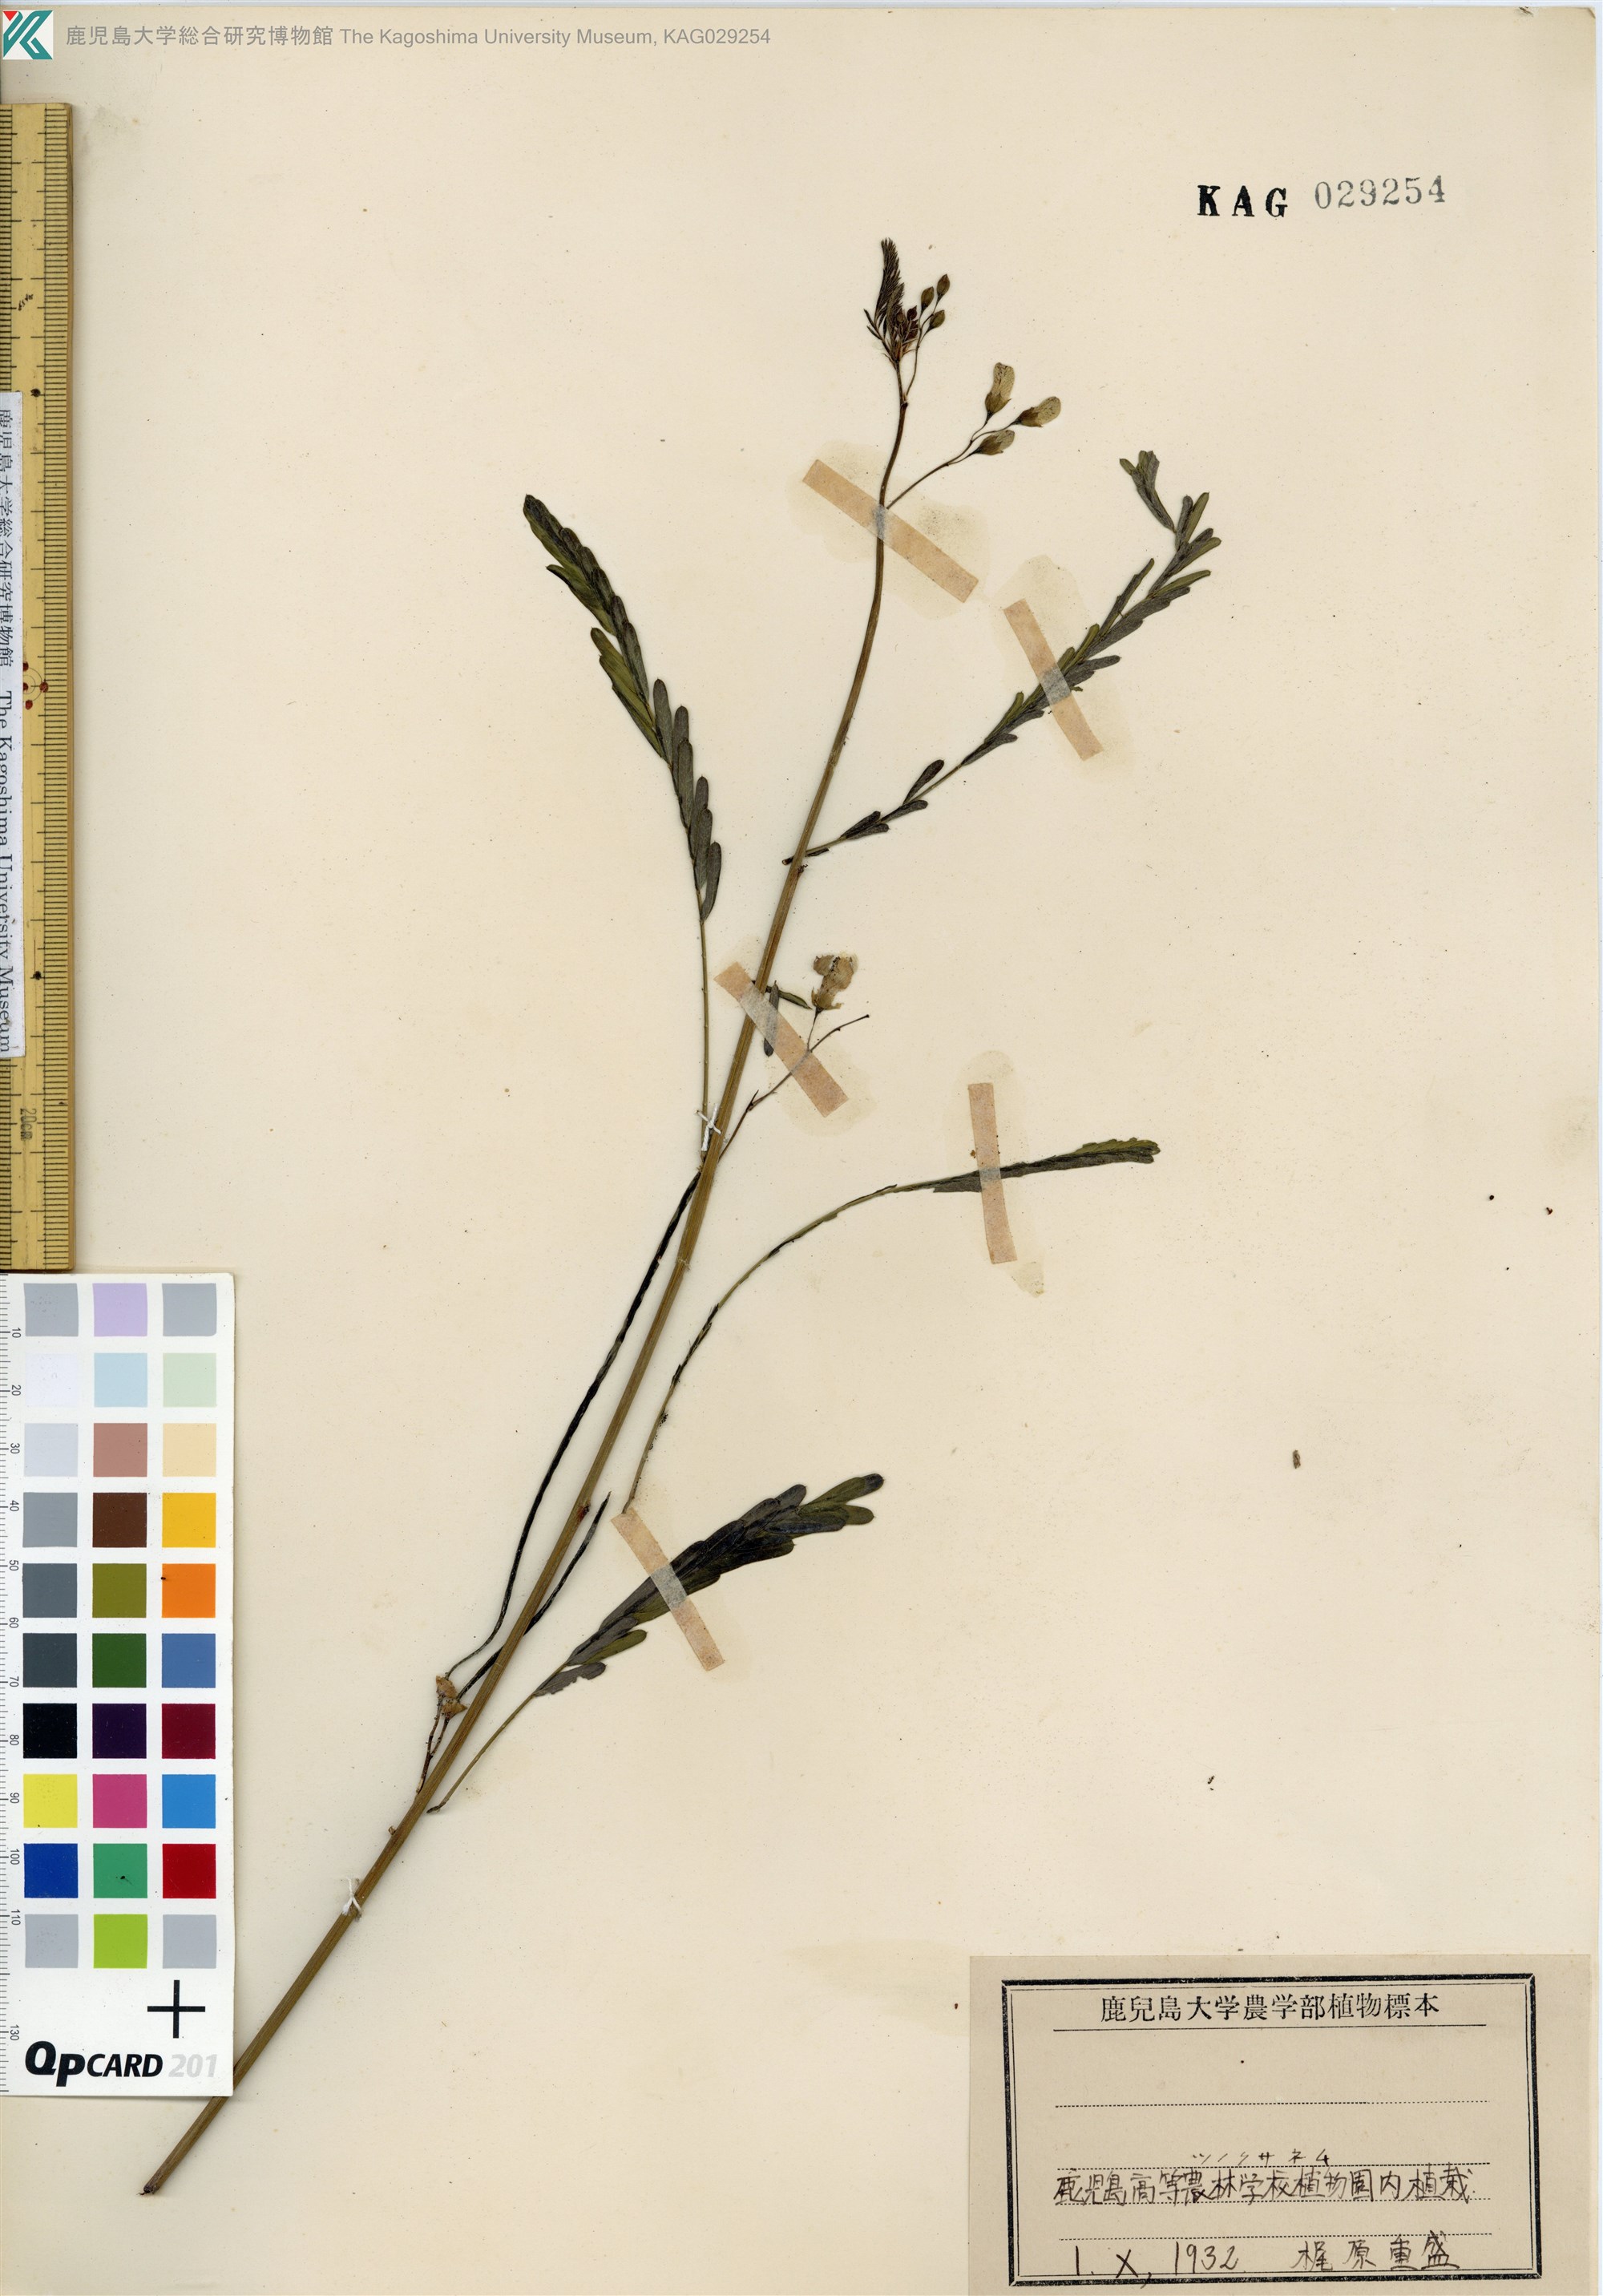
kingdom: Plantae
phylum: Tracheophyta
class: Magnoliopsida
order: Fabales
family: Fabaceae
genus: Sesbania
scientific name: Sesbania cannabina
